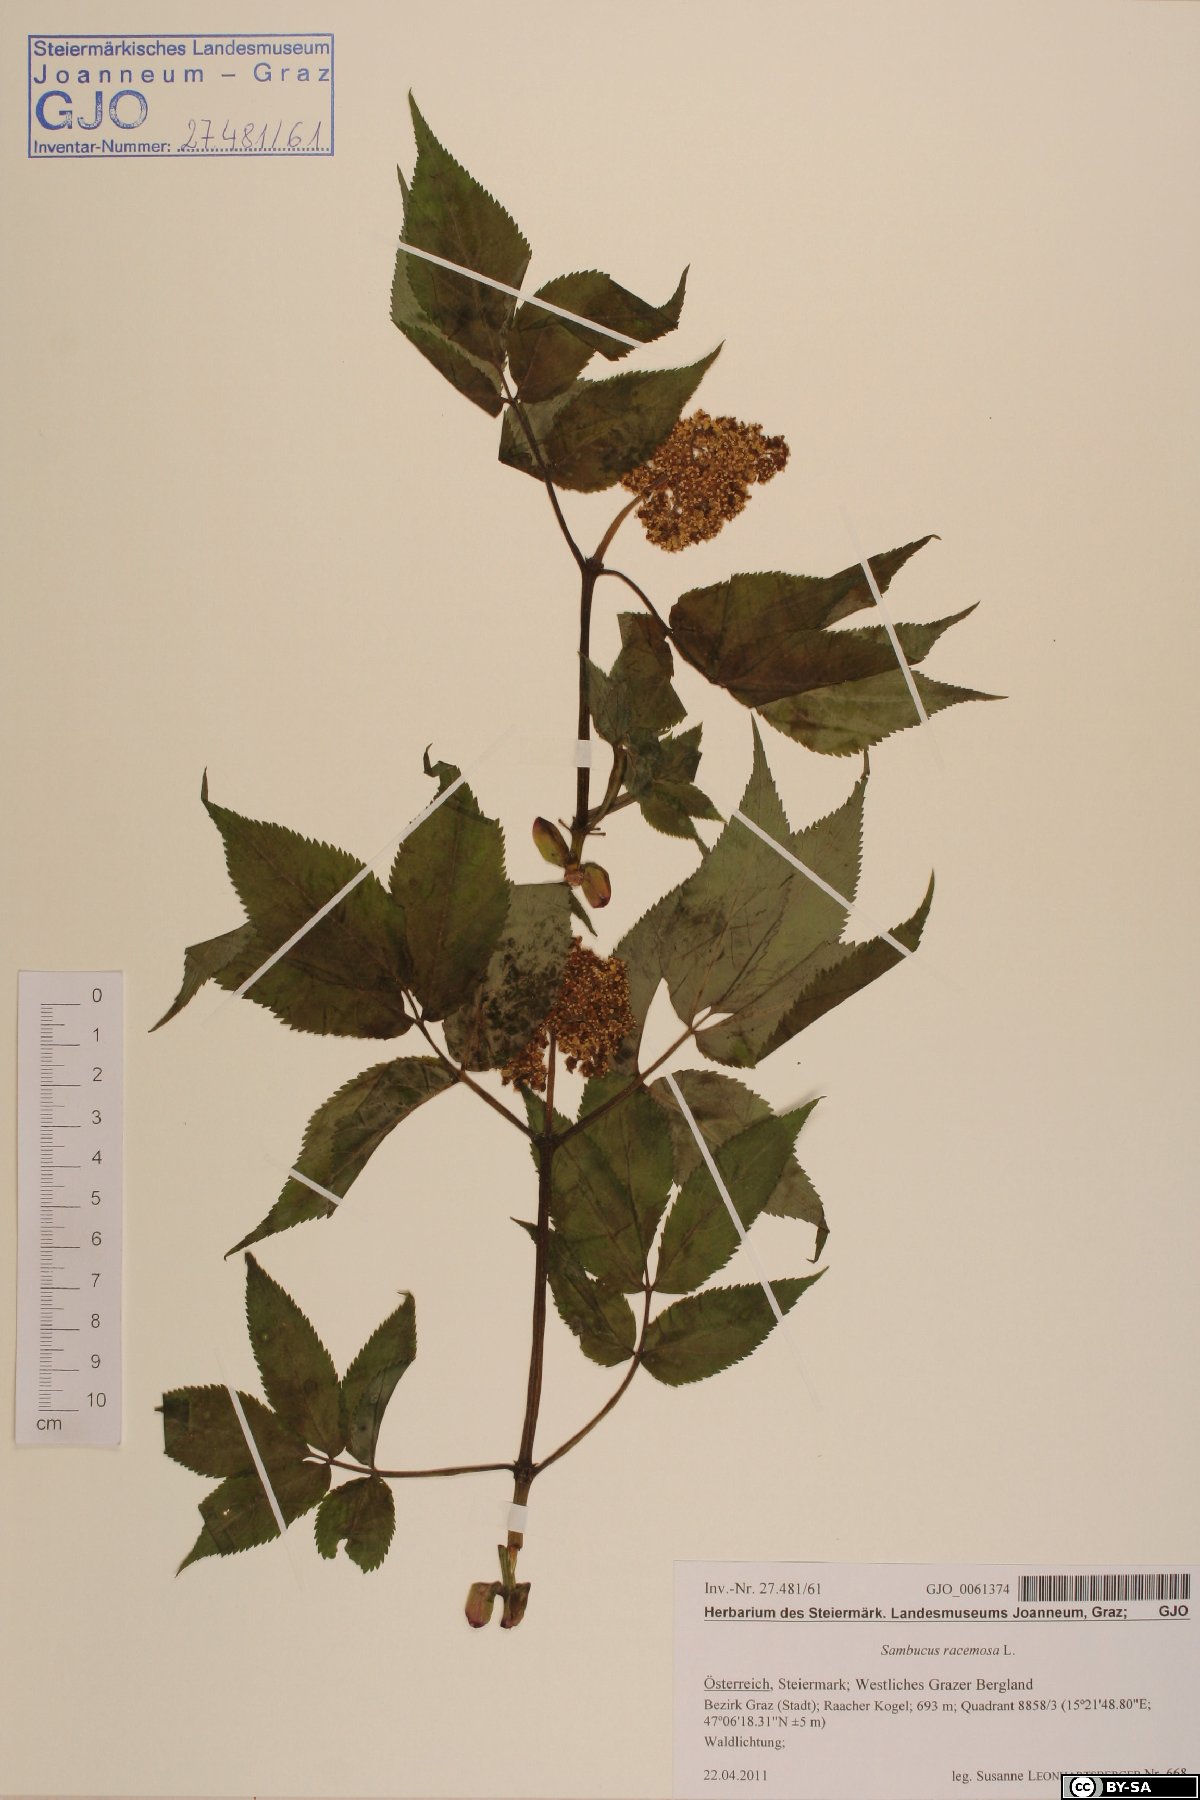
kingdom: Plantae
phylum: Tracheophyta
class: Magnoliopsida
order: Dipsacales
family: Viburnaceae
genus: Sambucus
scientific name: Sambucus racemosa
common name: Red-berried elder
